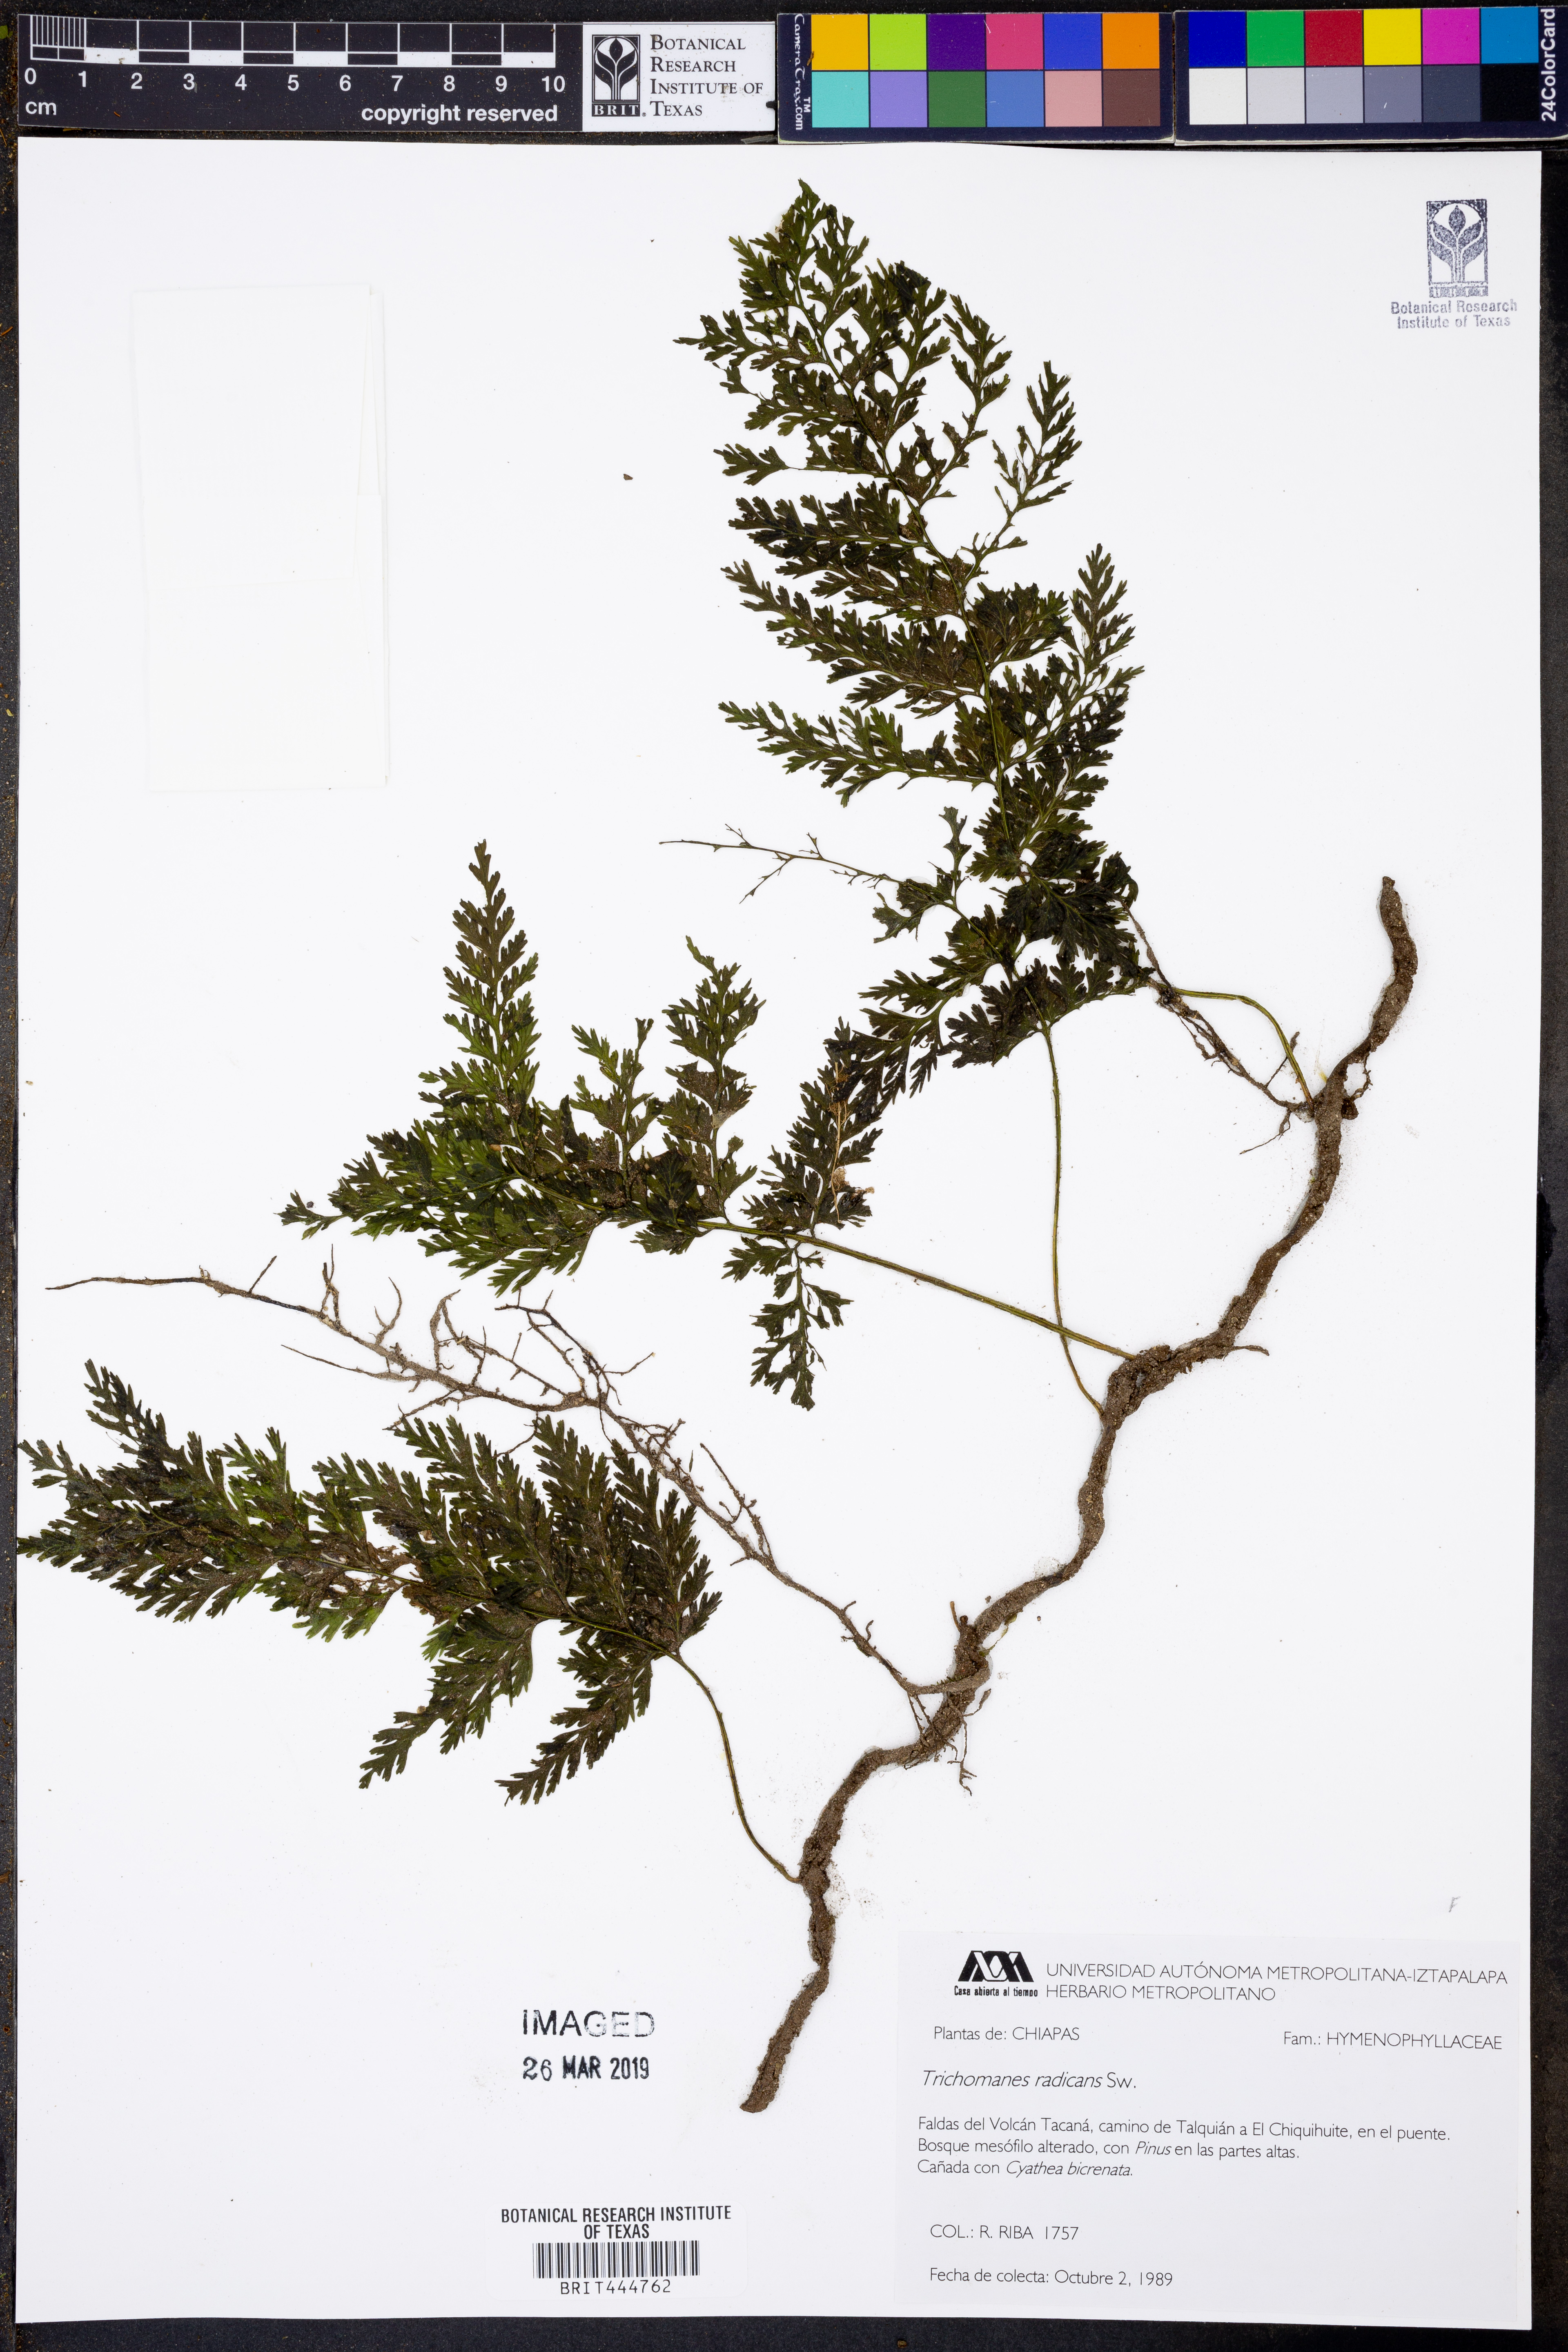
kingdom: Plantae
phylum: Tracheophyta
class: Polypodiopsida
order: Hymenophyllales
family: Hymenophyllaceae
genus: Vandenboschia
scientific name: Vandenboschia radicans
